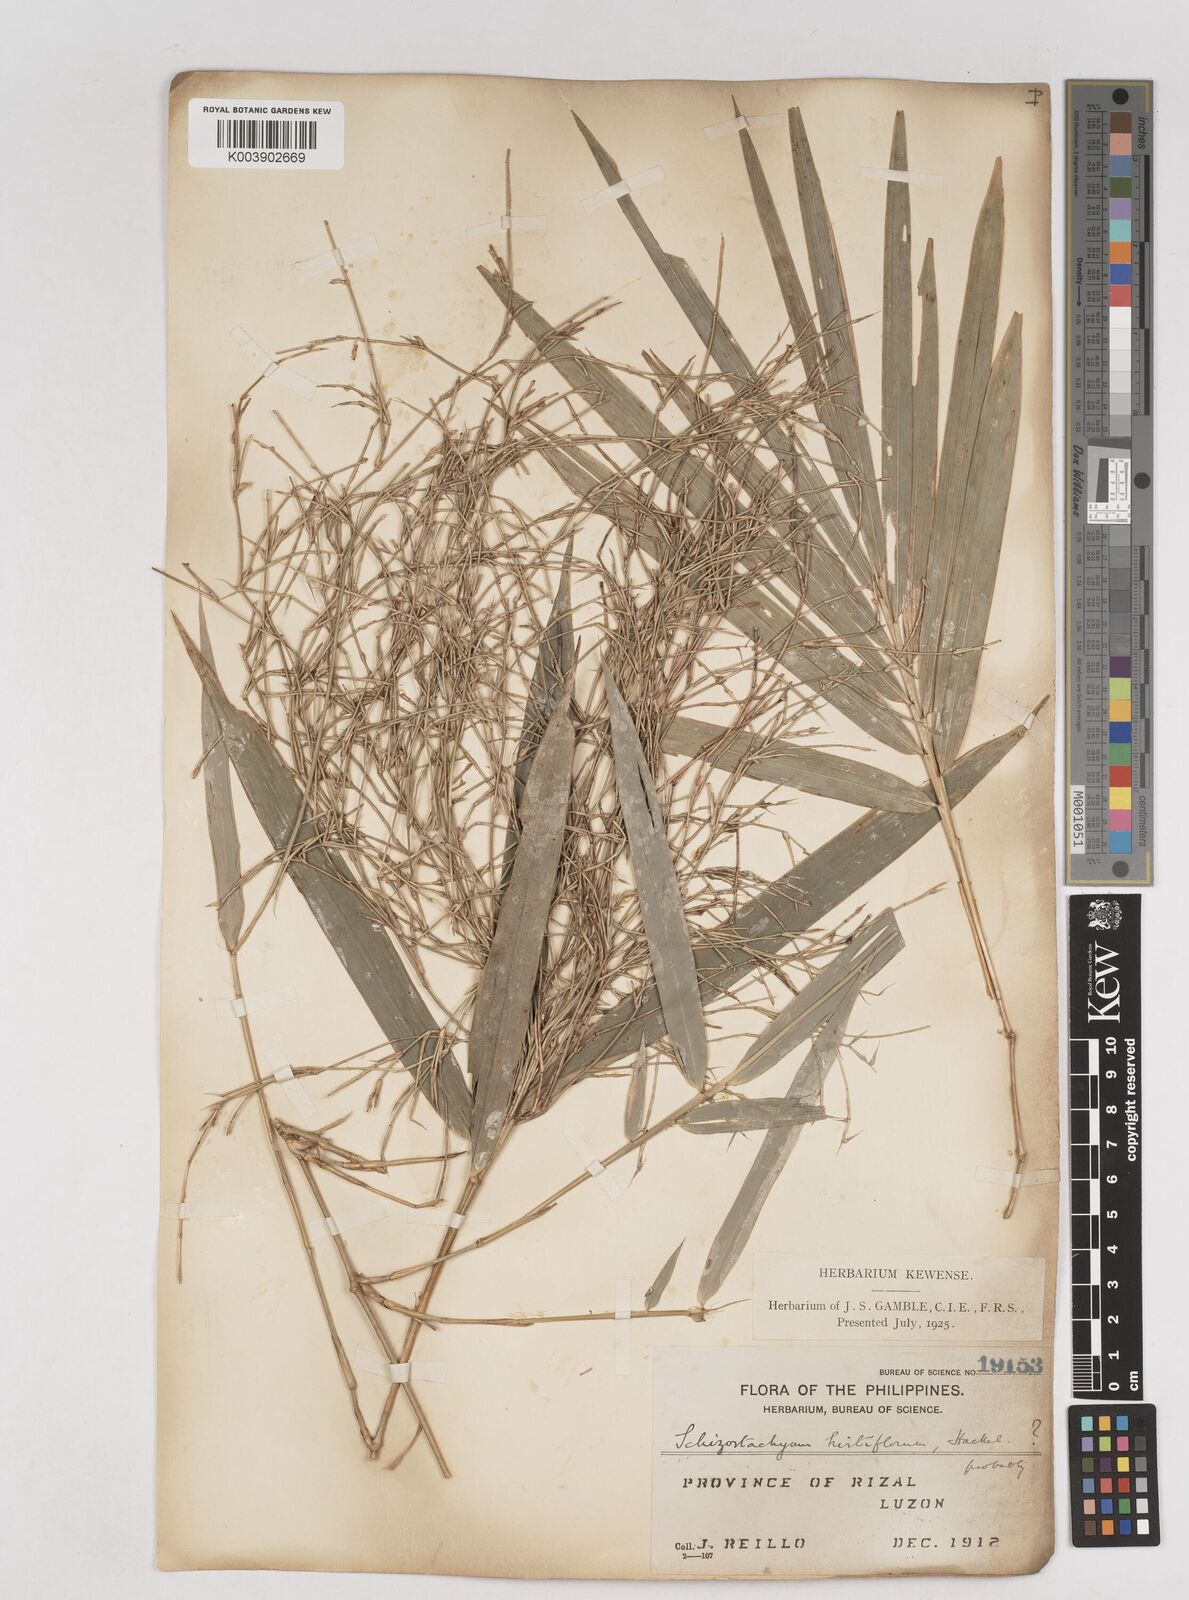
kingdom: Plantae
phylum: Tracheophyta
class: Liliopsida
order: Poales
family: Poaceae
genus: Schizostachyum
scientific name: Schizostachyum lumampao
